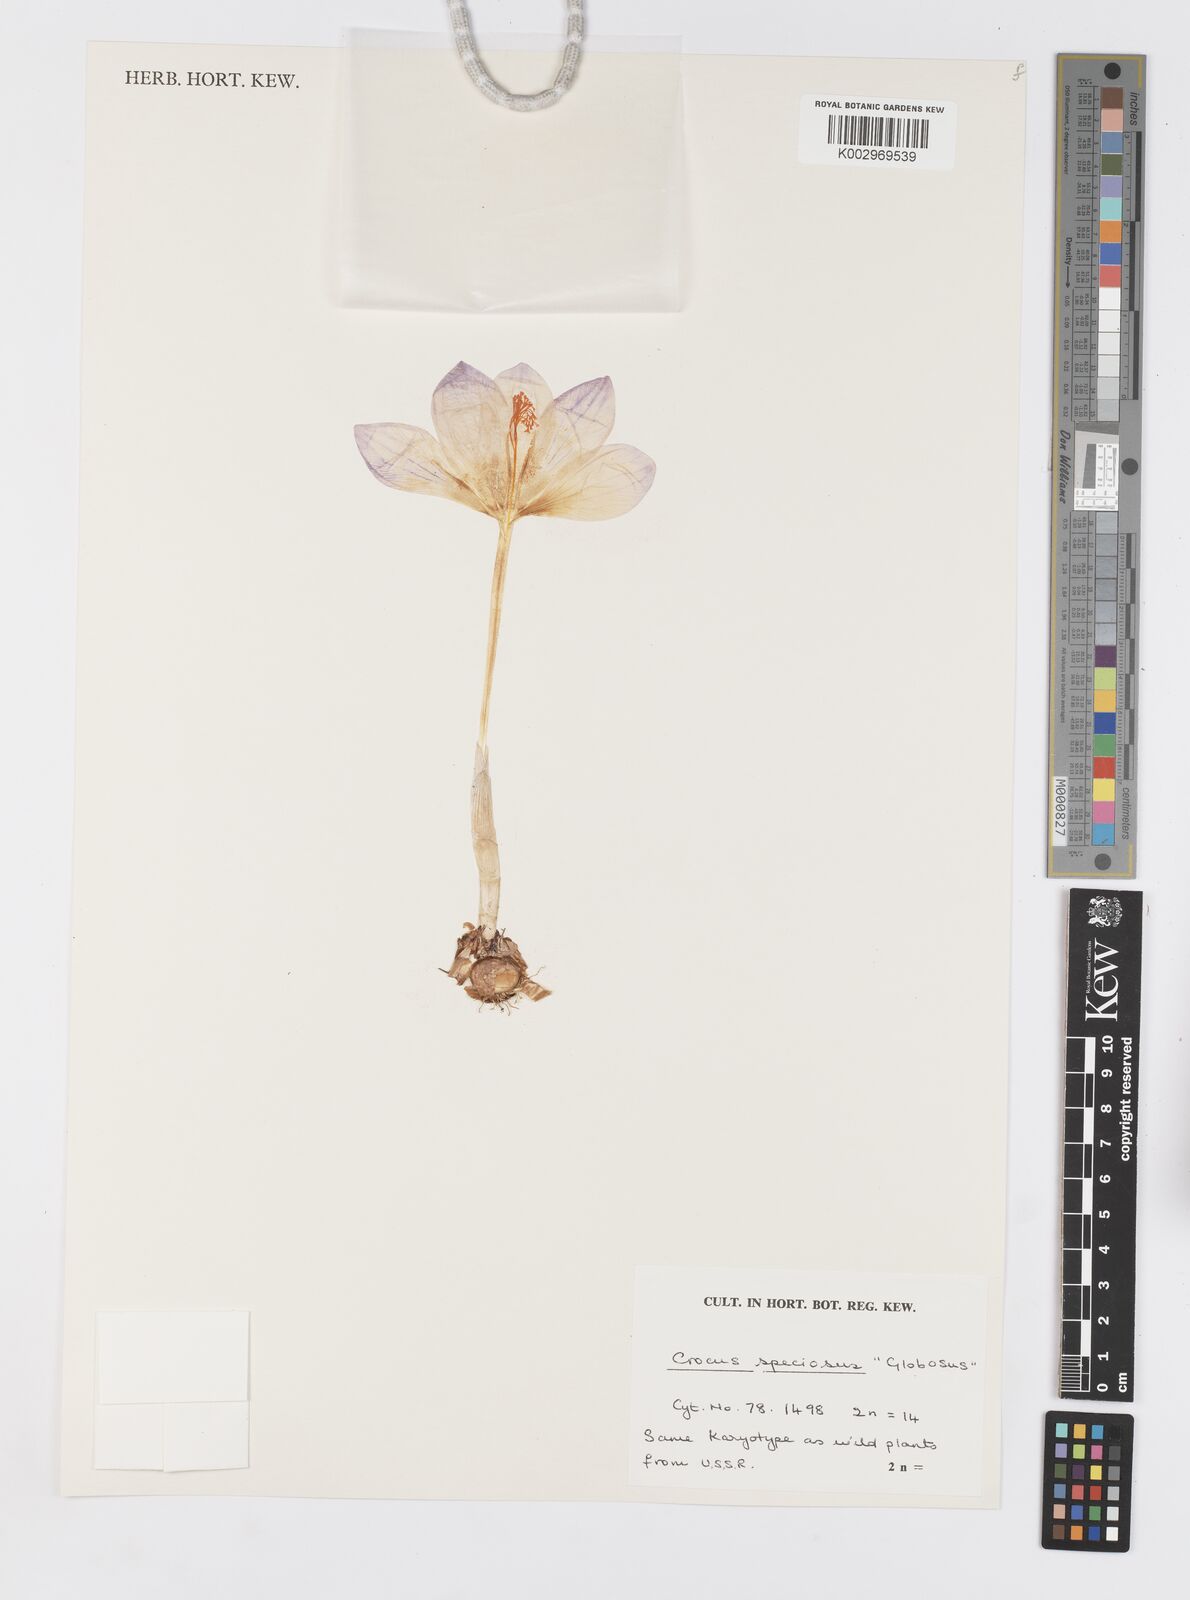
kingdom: Plantae
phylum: Tracheophyta
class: Liliopsida
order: Asparagales
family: Iridaceae
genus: Crocus
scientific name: Crocus speciosus
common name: Bieberstein's crocus
